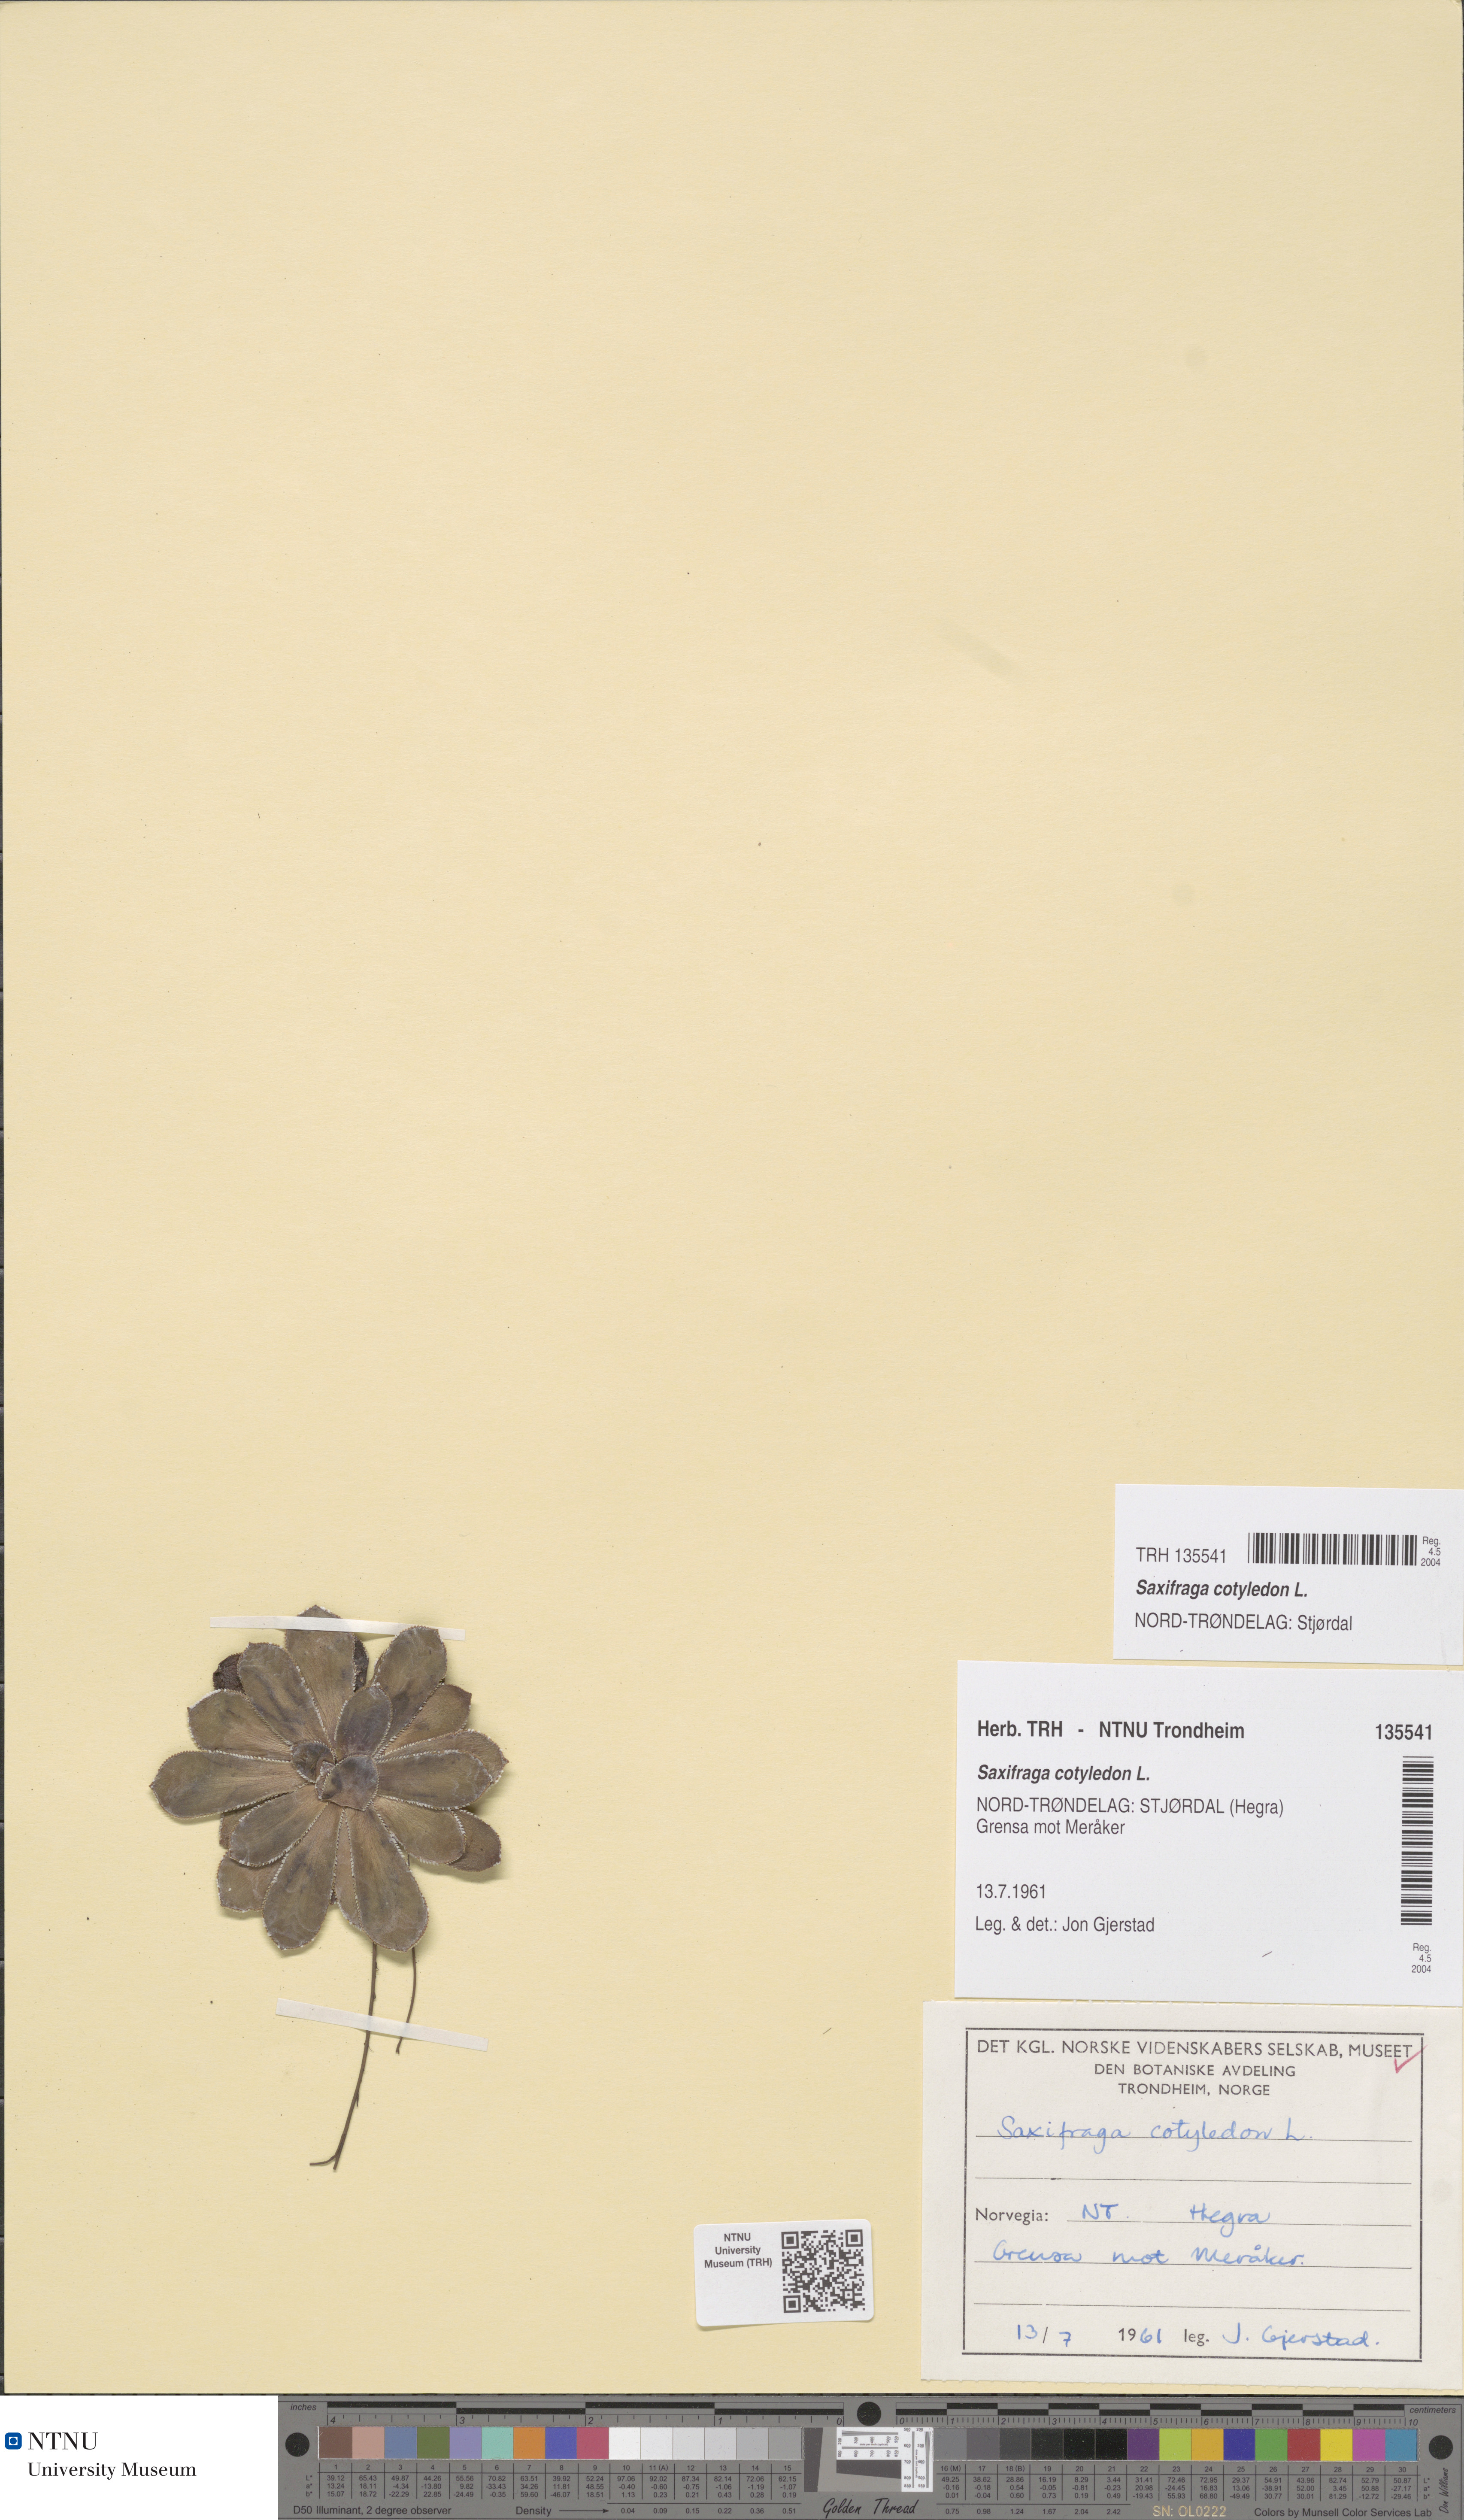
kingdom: Plantae
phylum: Tracheophyta
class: Magnoliopsida
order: Saxifragales
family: Saxifragaceae
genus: Saxifraga
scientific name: Saxifraga cotyledon
